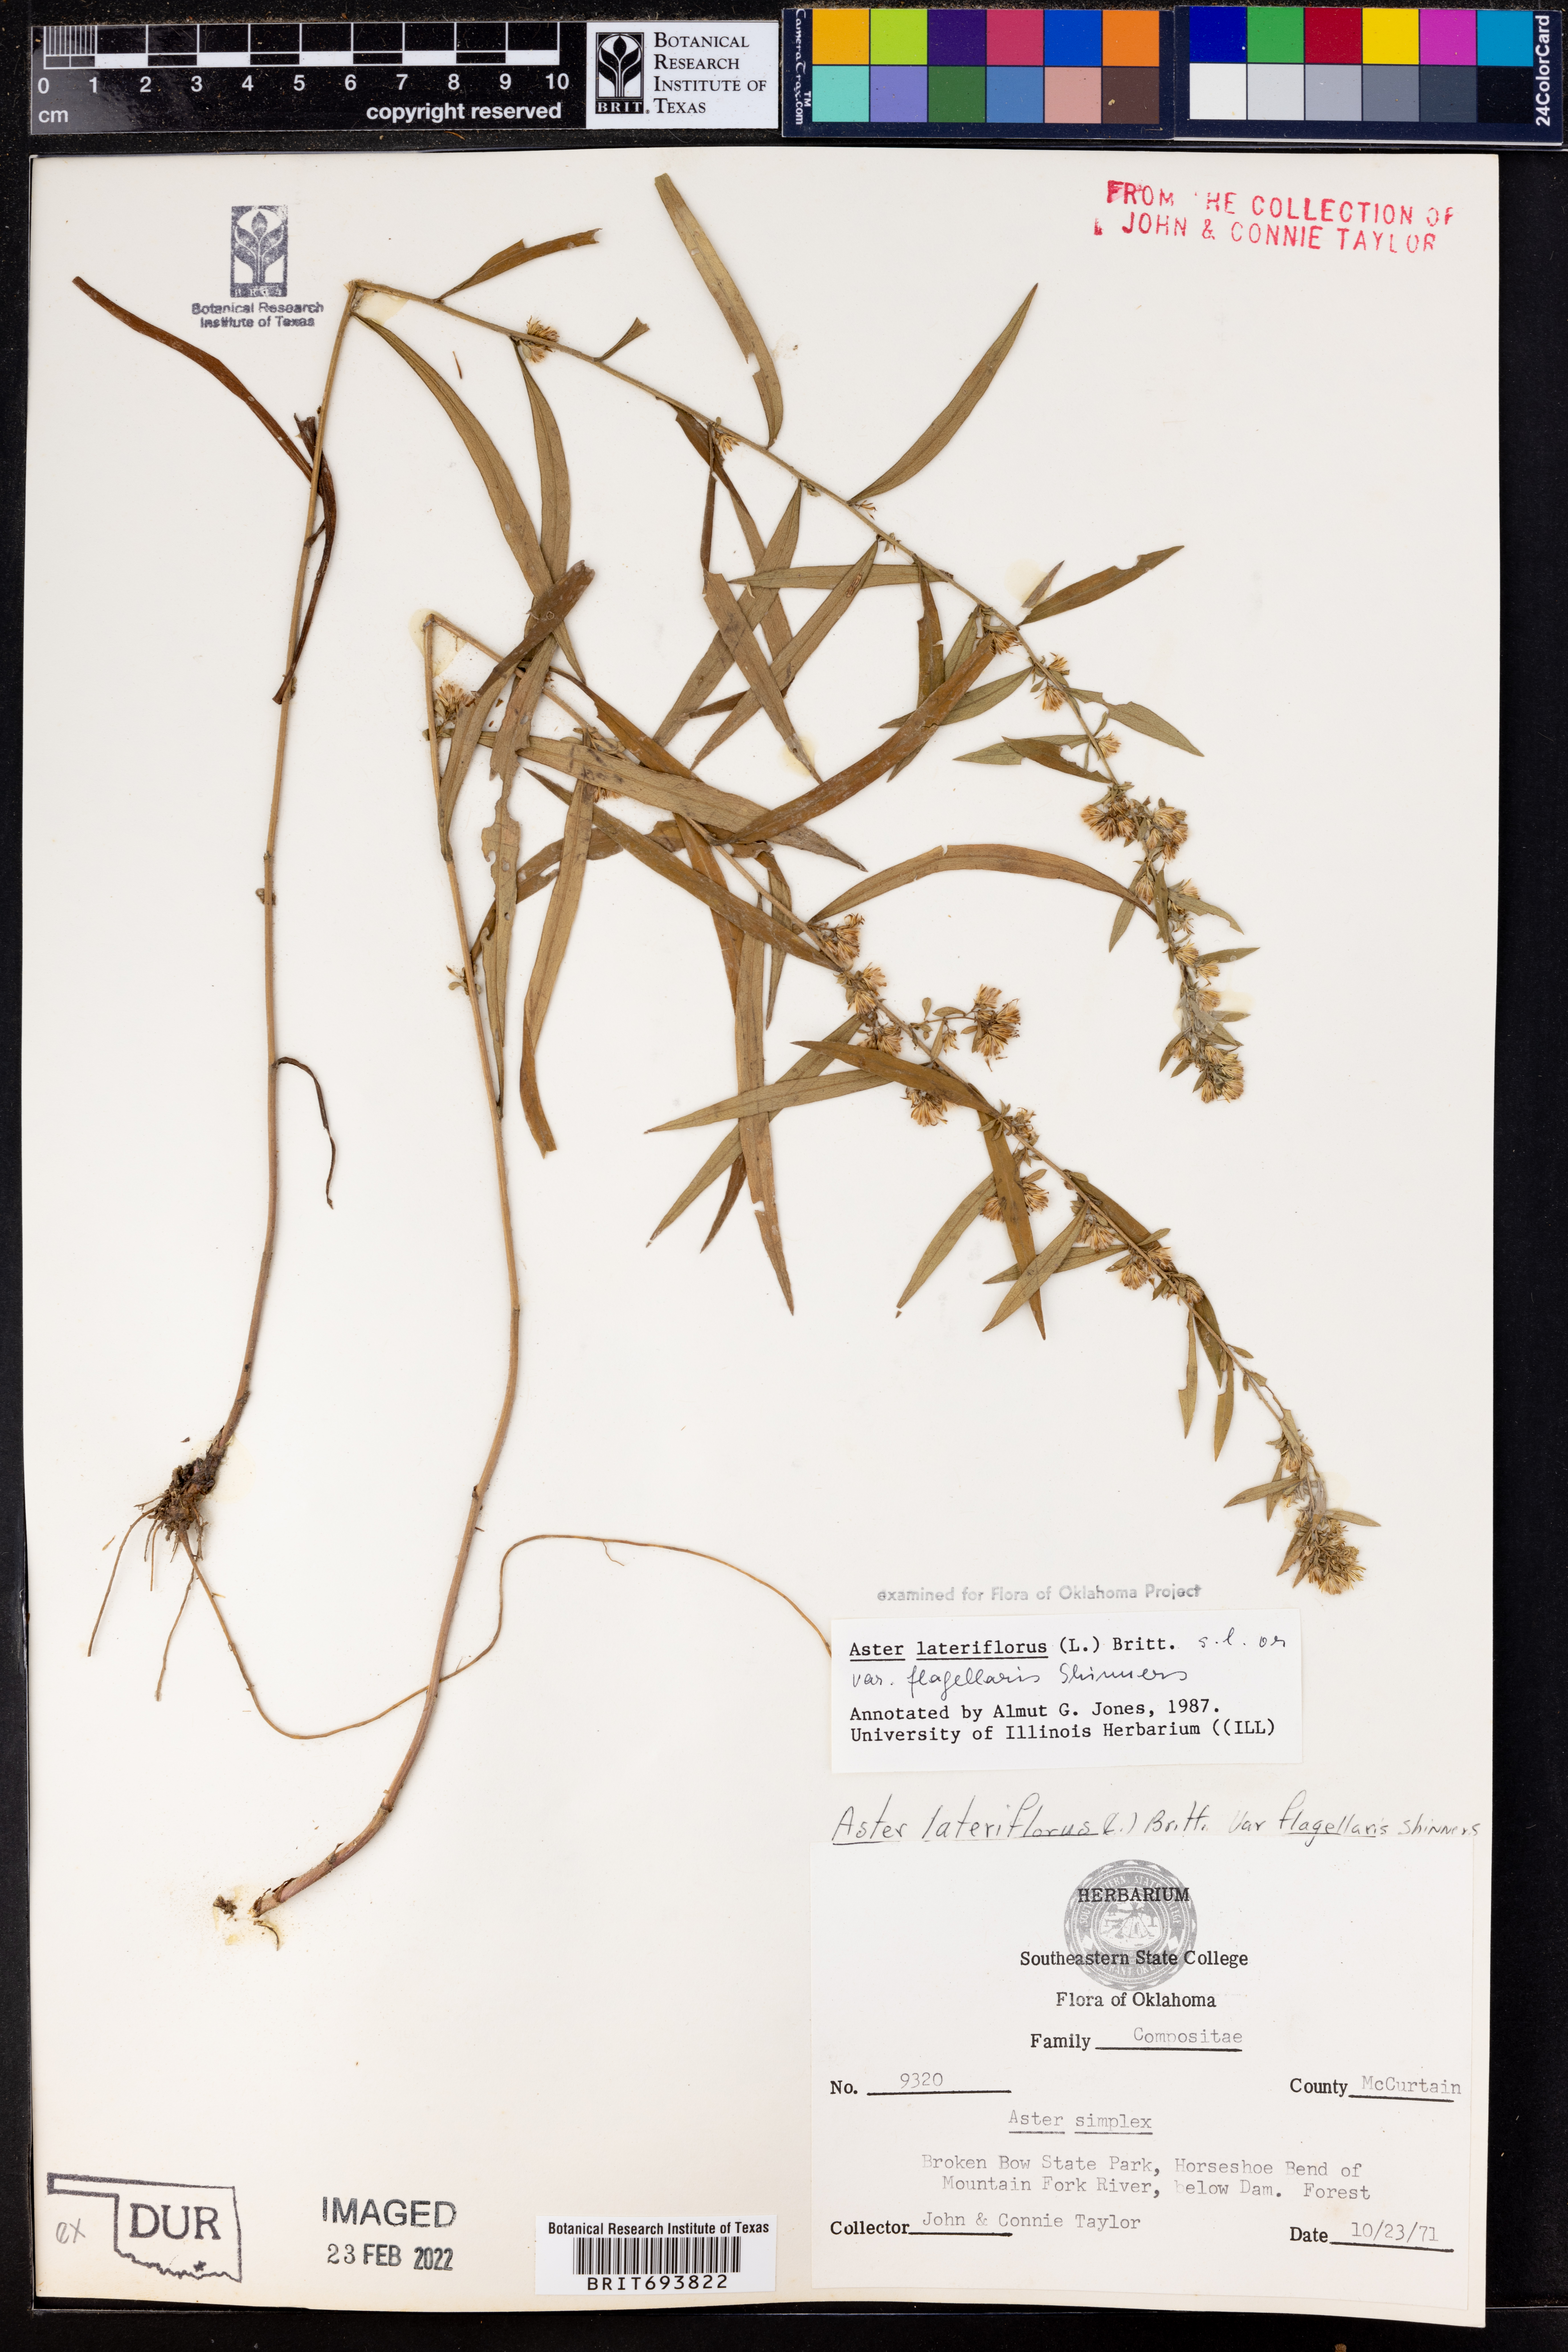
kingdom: Plantae
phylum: Tracheophyta
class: Magnoliopsida
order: Asterales
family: Asteraceae
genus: Symphyotrichum
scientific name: Symphyotrichum lateriflorum
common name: Calico aster
